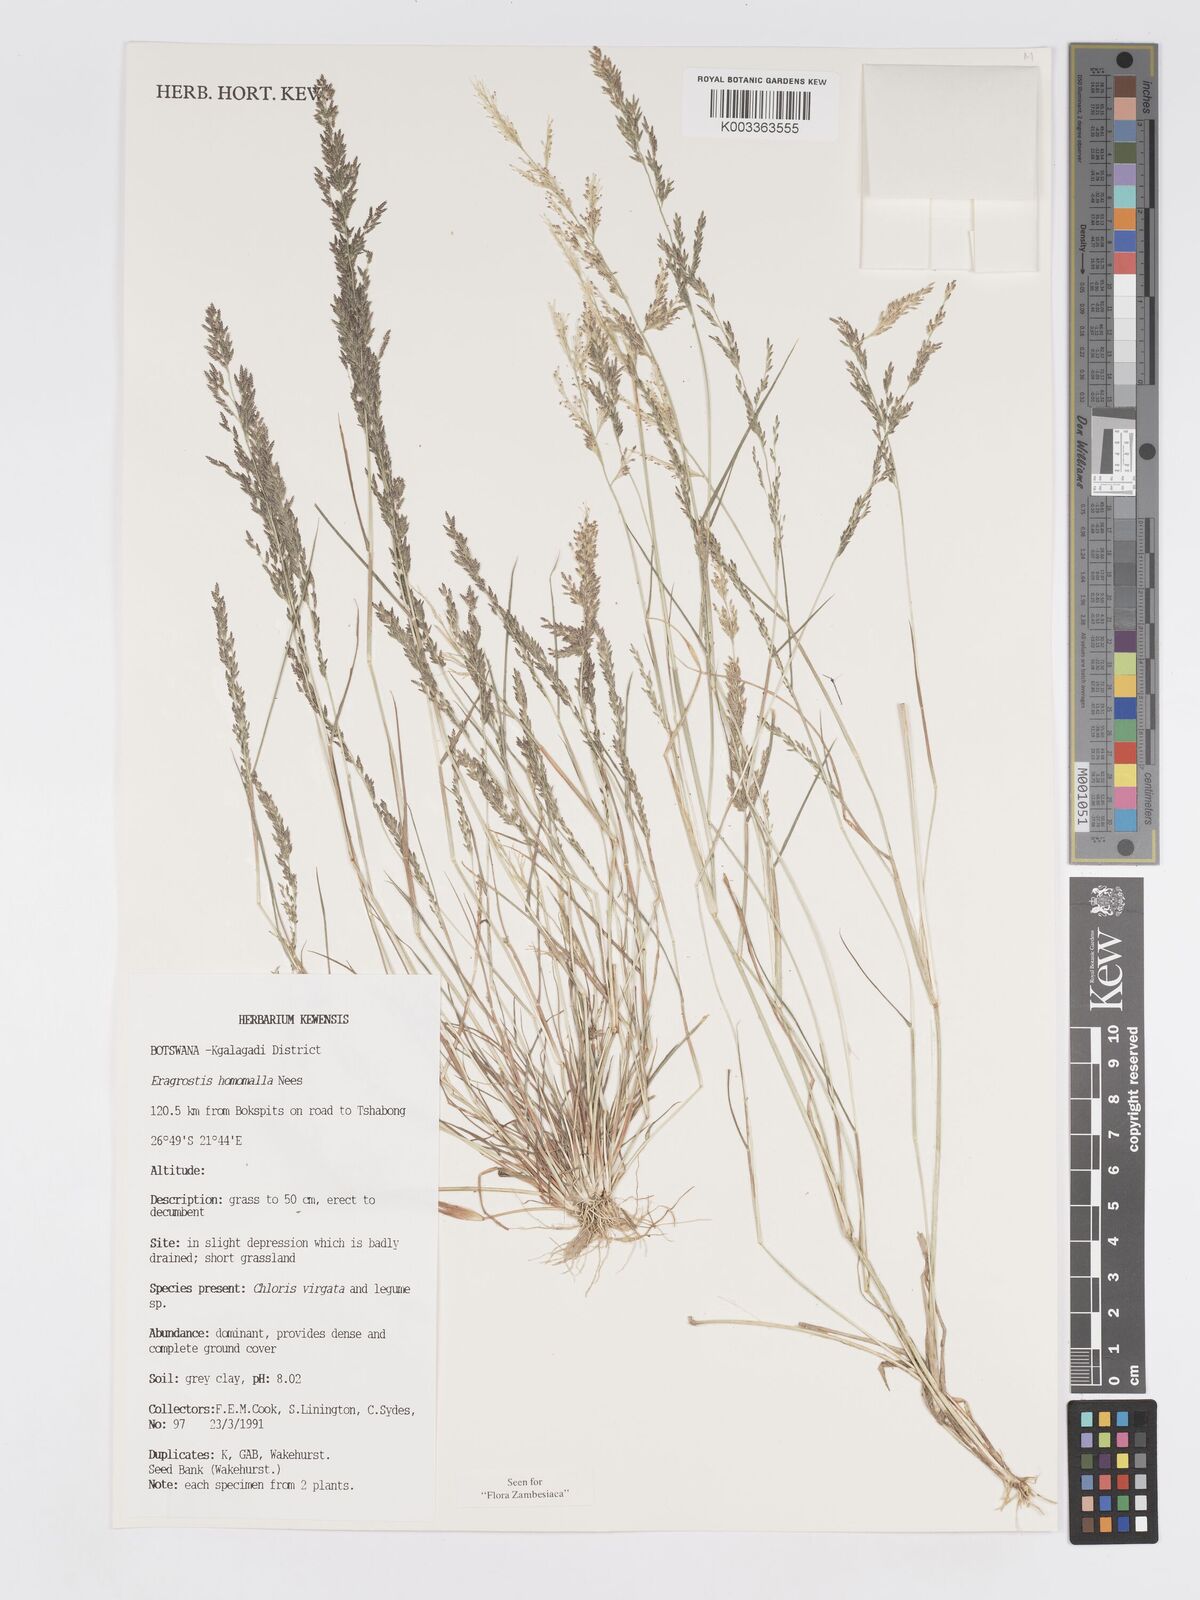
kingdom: Plantae
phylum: Tracheophyta
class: Liliopsida
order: Poales
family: Poaceae
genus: Eragrostis
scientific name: Eragrostis homomalla
